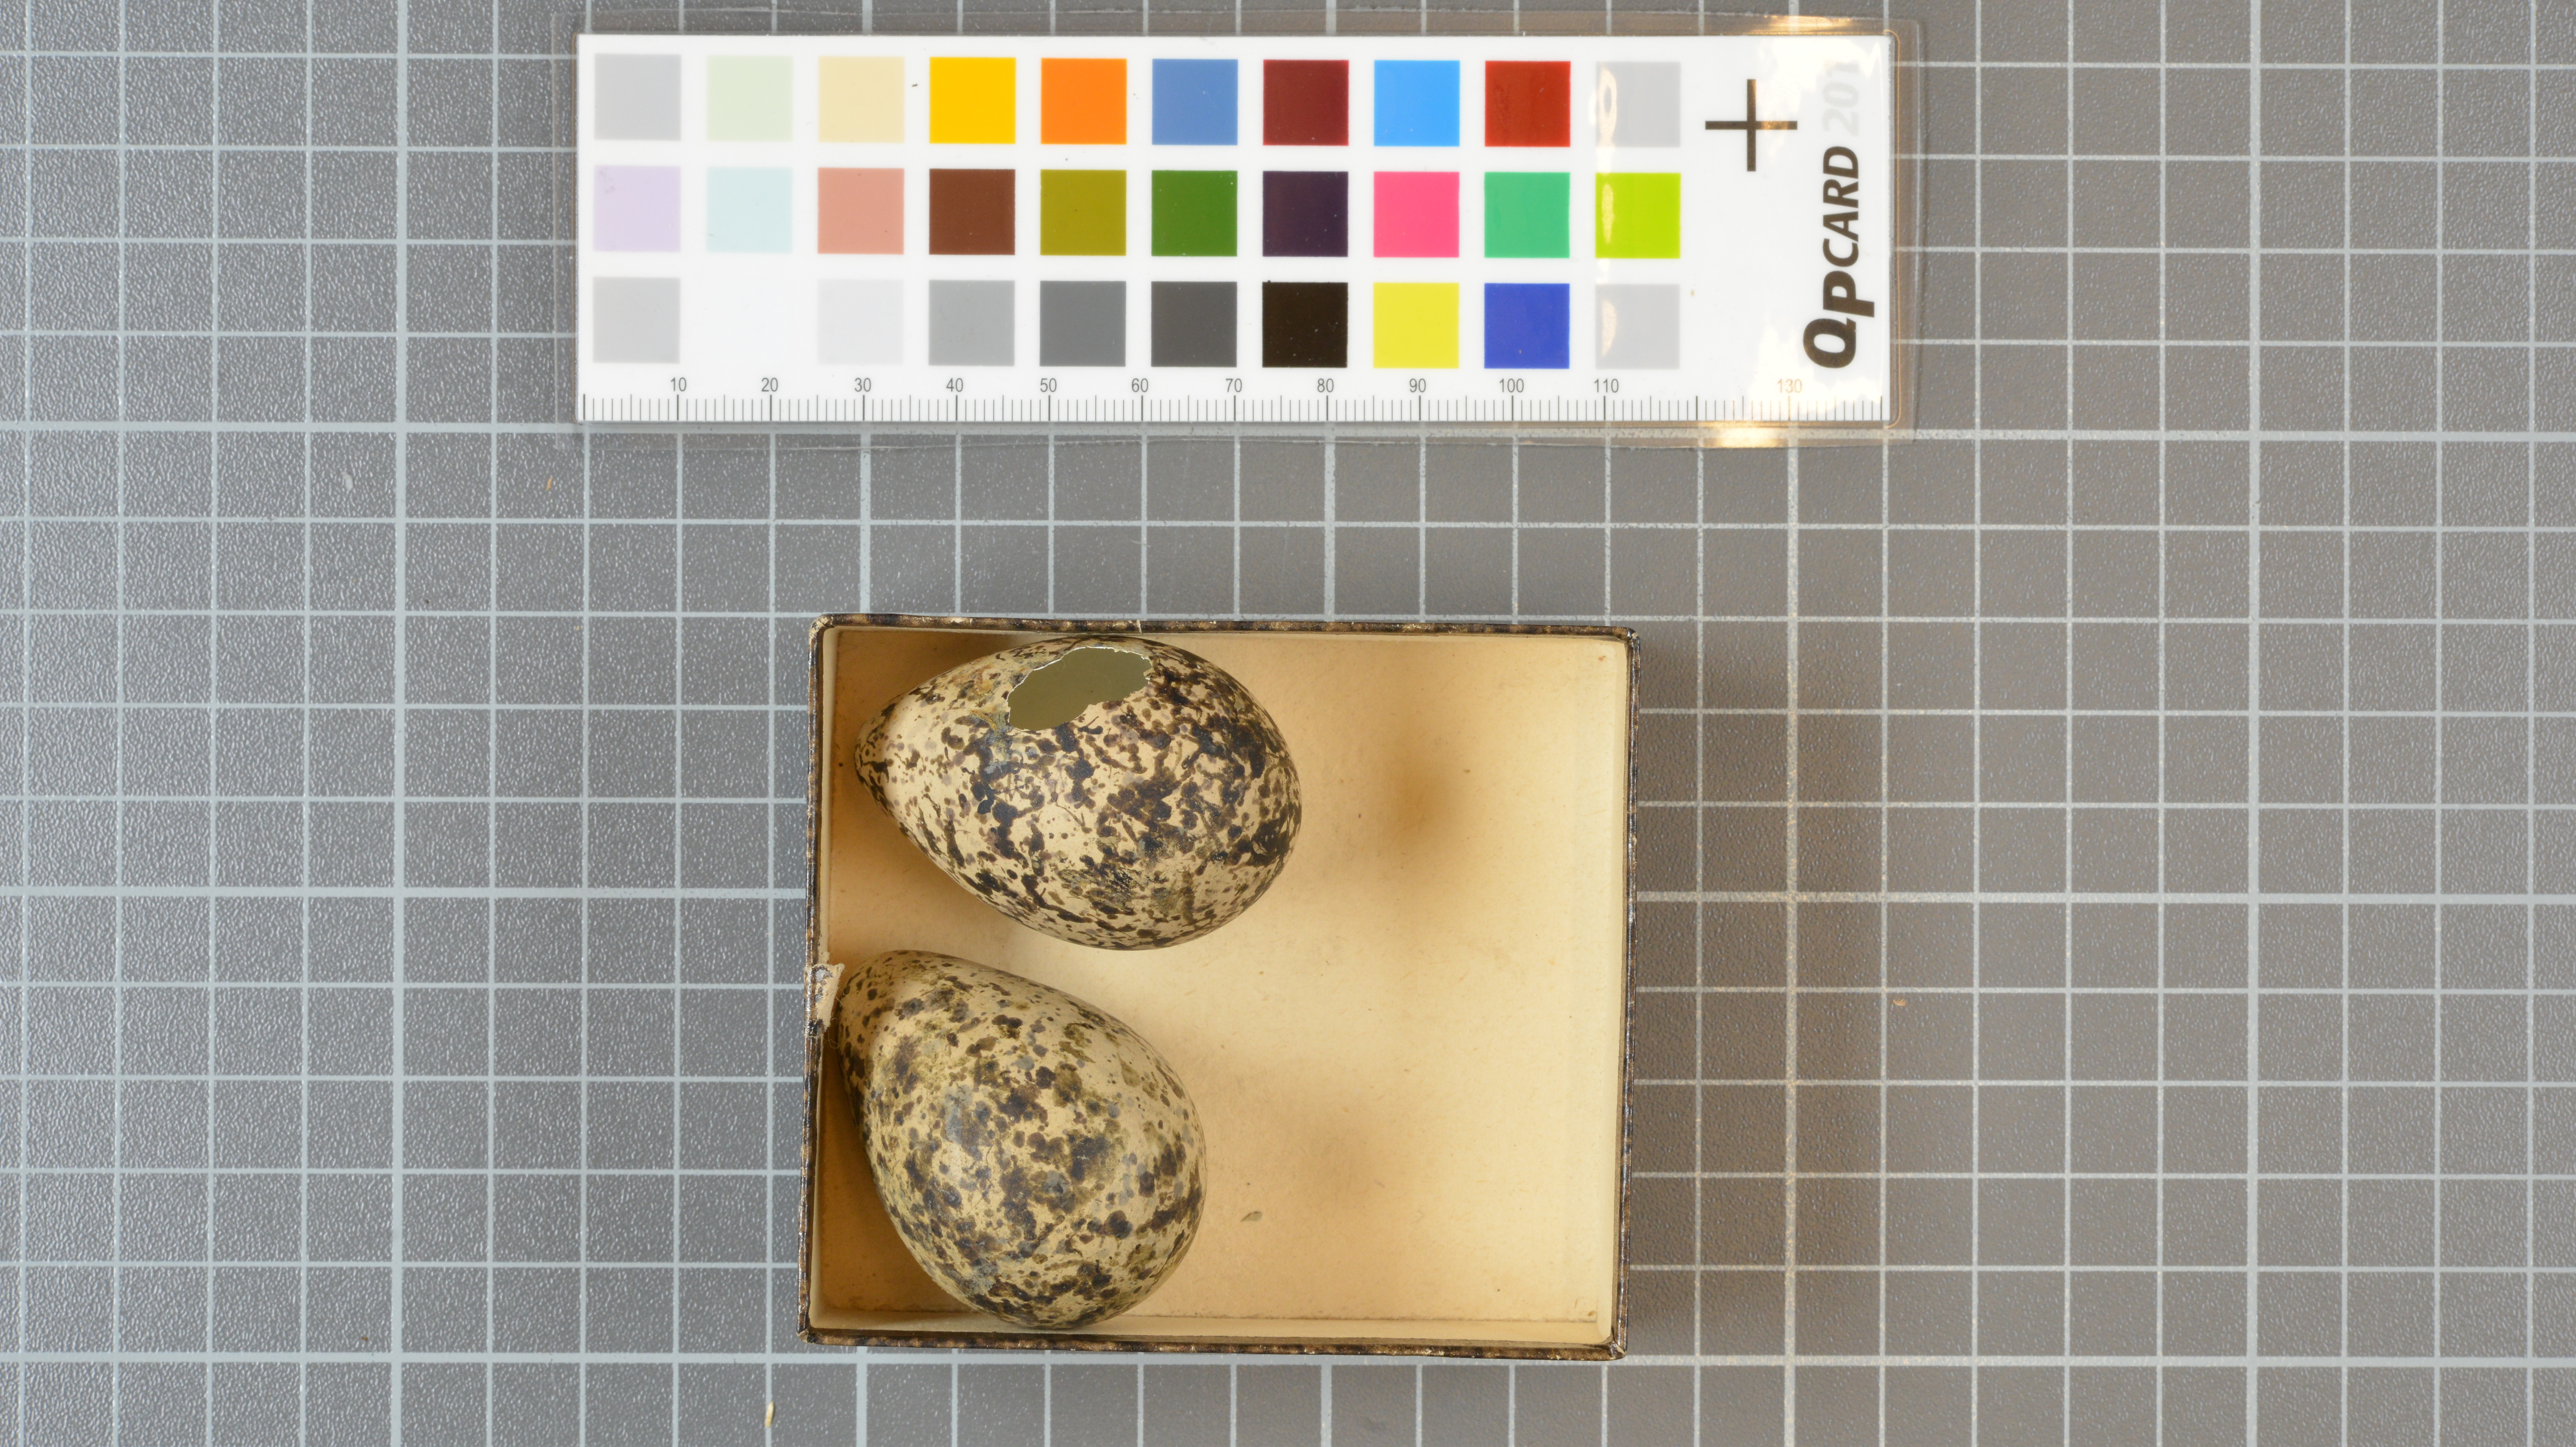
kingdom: Animalia
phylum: Chordata
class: Aves
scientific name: Aves
